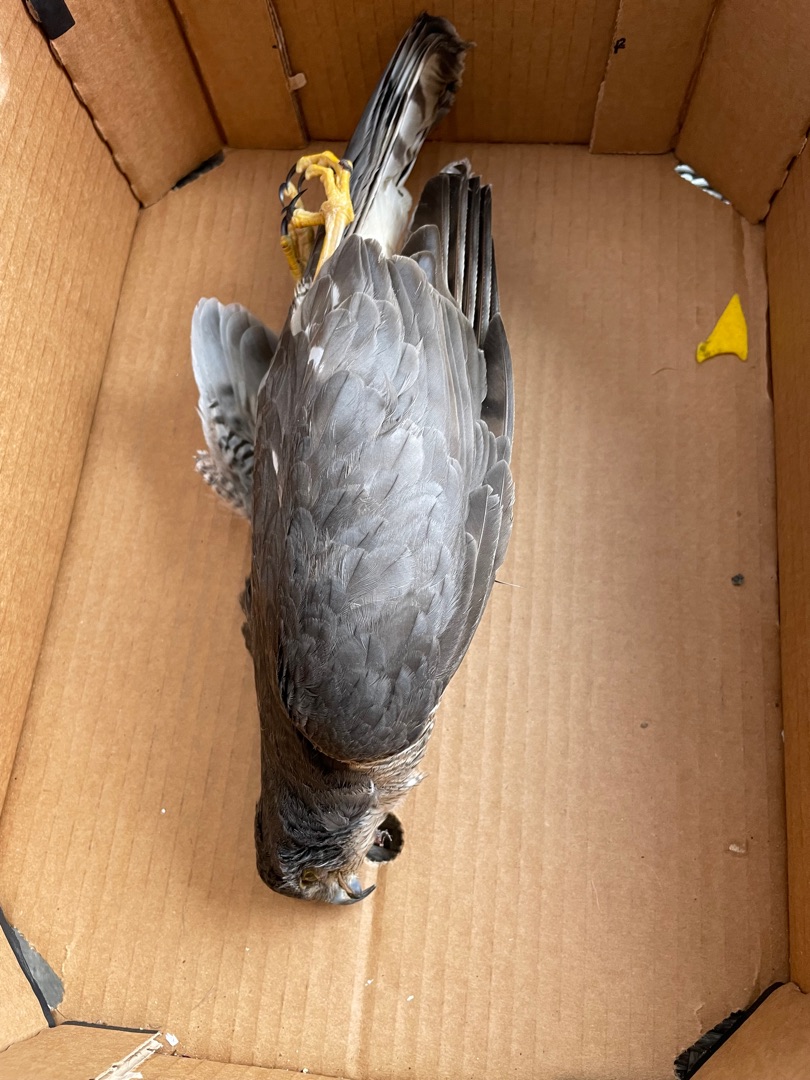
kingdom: Animalia
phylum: Chordata
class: Aves
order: Accipitriformes
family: Accipitridae
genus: Accipiter
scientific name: Accipiter nisus
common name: Spurvehøg
